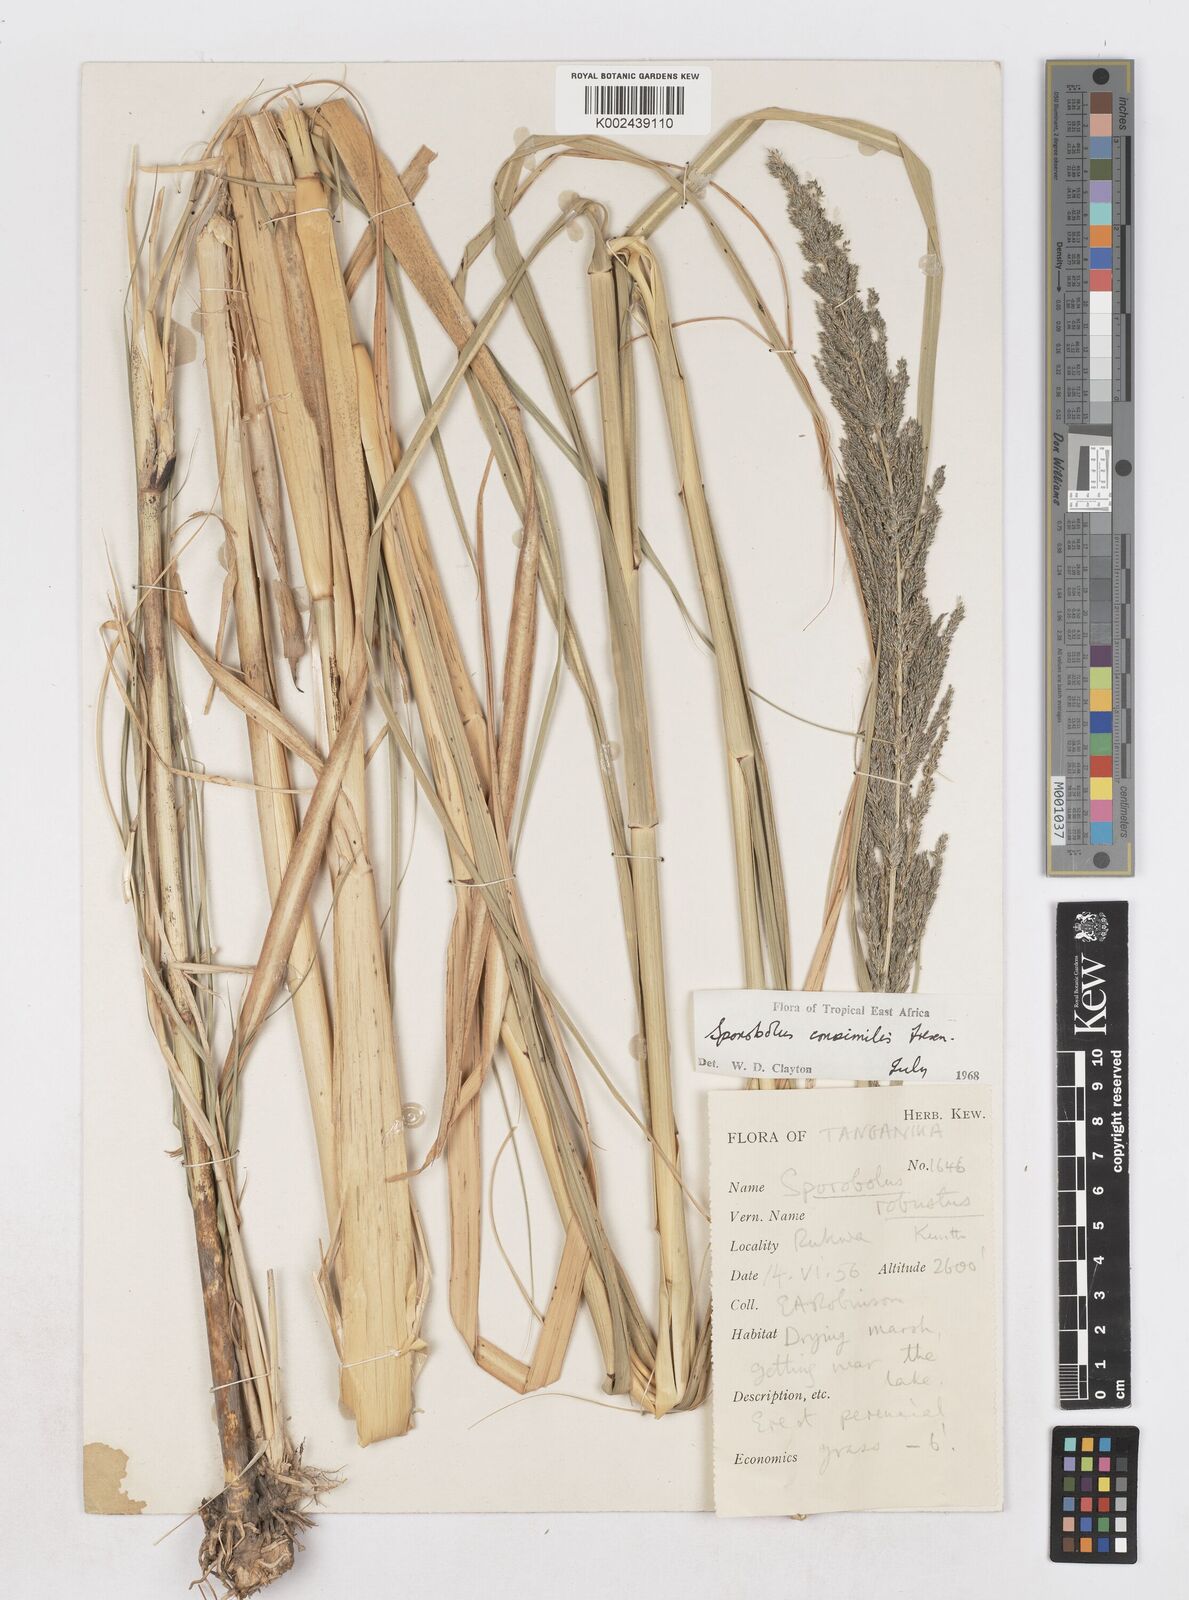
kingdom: Plantae
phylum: Tracheophyta
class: Liliopsida
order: Poales
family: Poaceae
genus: Sporobolus
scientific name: Sporobolus consimilis
